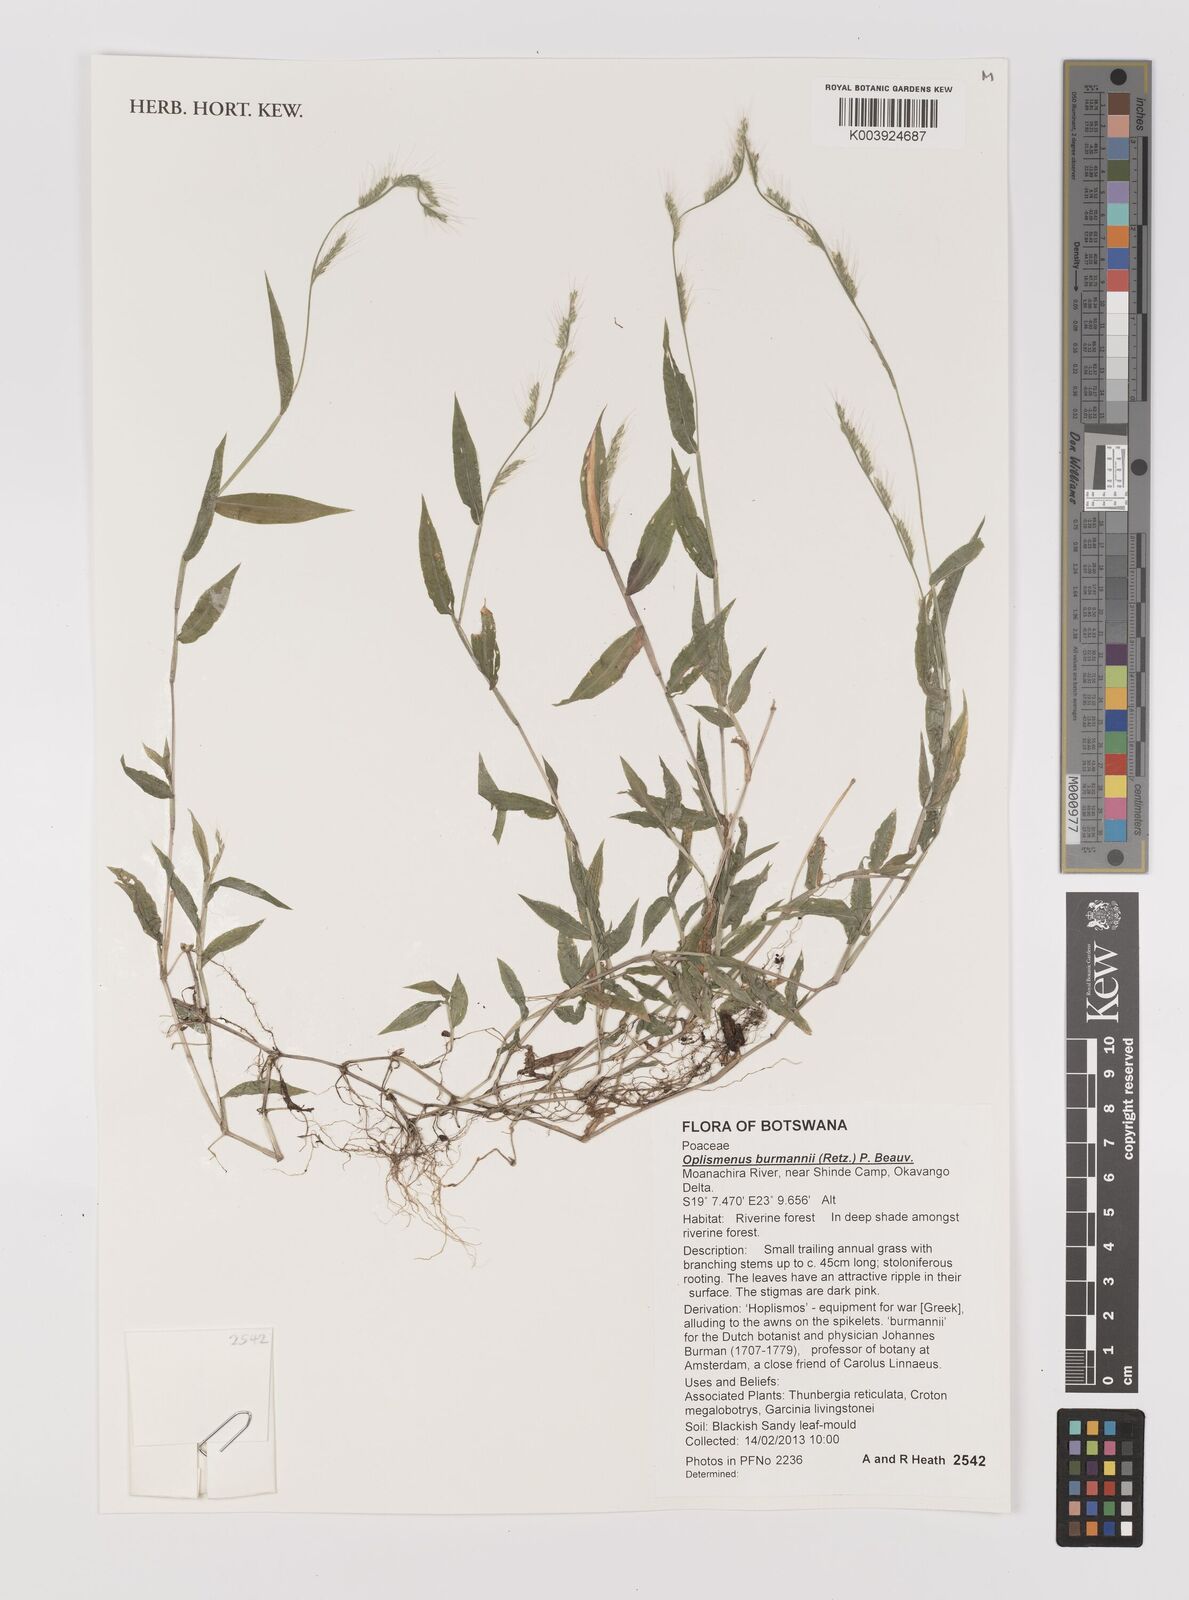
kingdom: Plantae
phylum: Tracheophyta
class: Liliopsida
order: Poales
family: Poaceae
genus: Oplismenus
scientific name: Oplismenus burmanni
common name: Burmann's basketgrass
